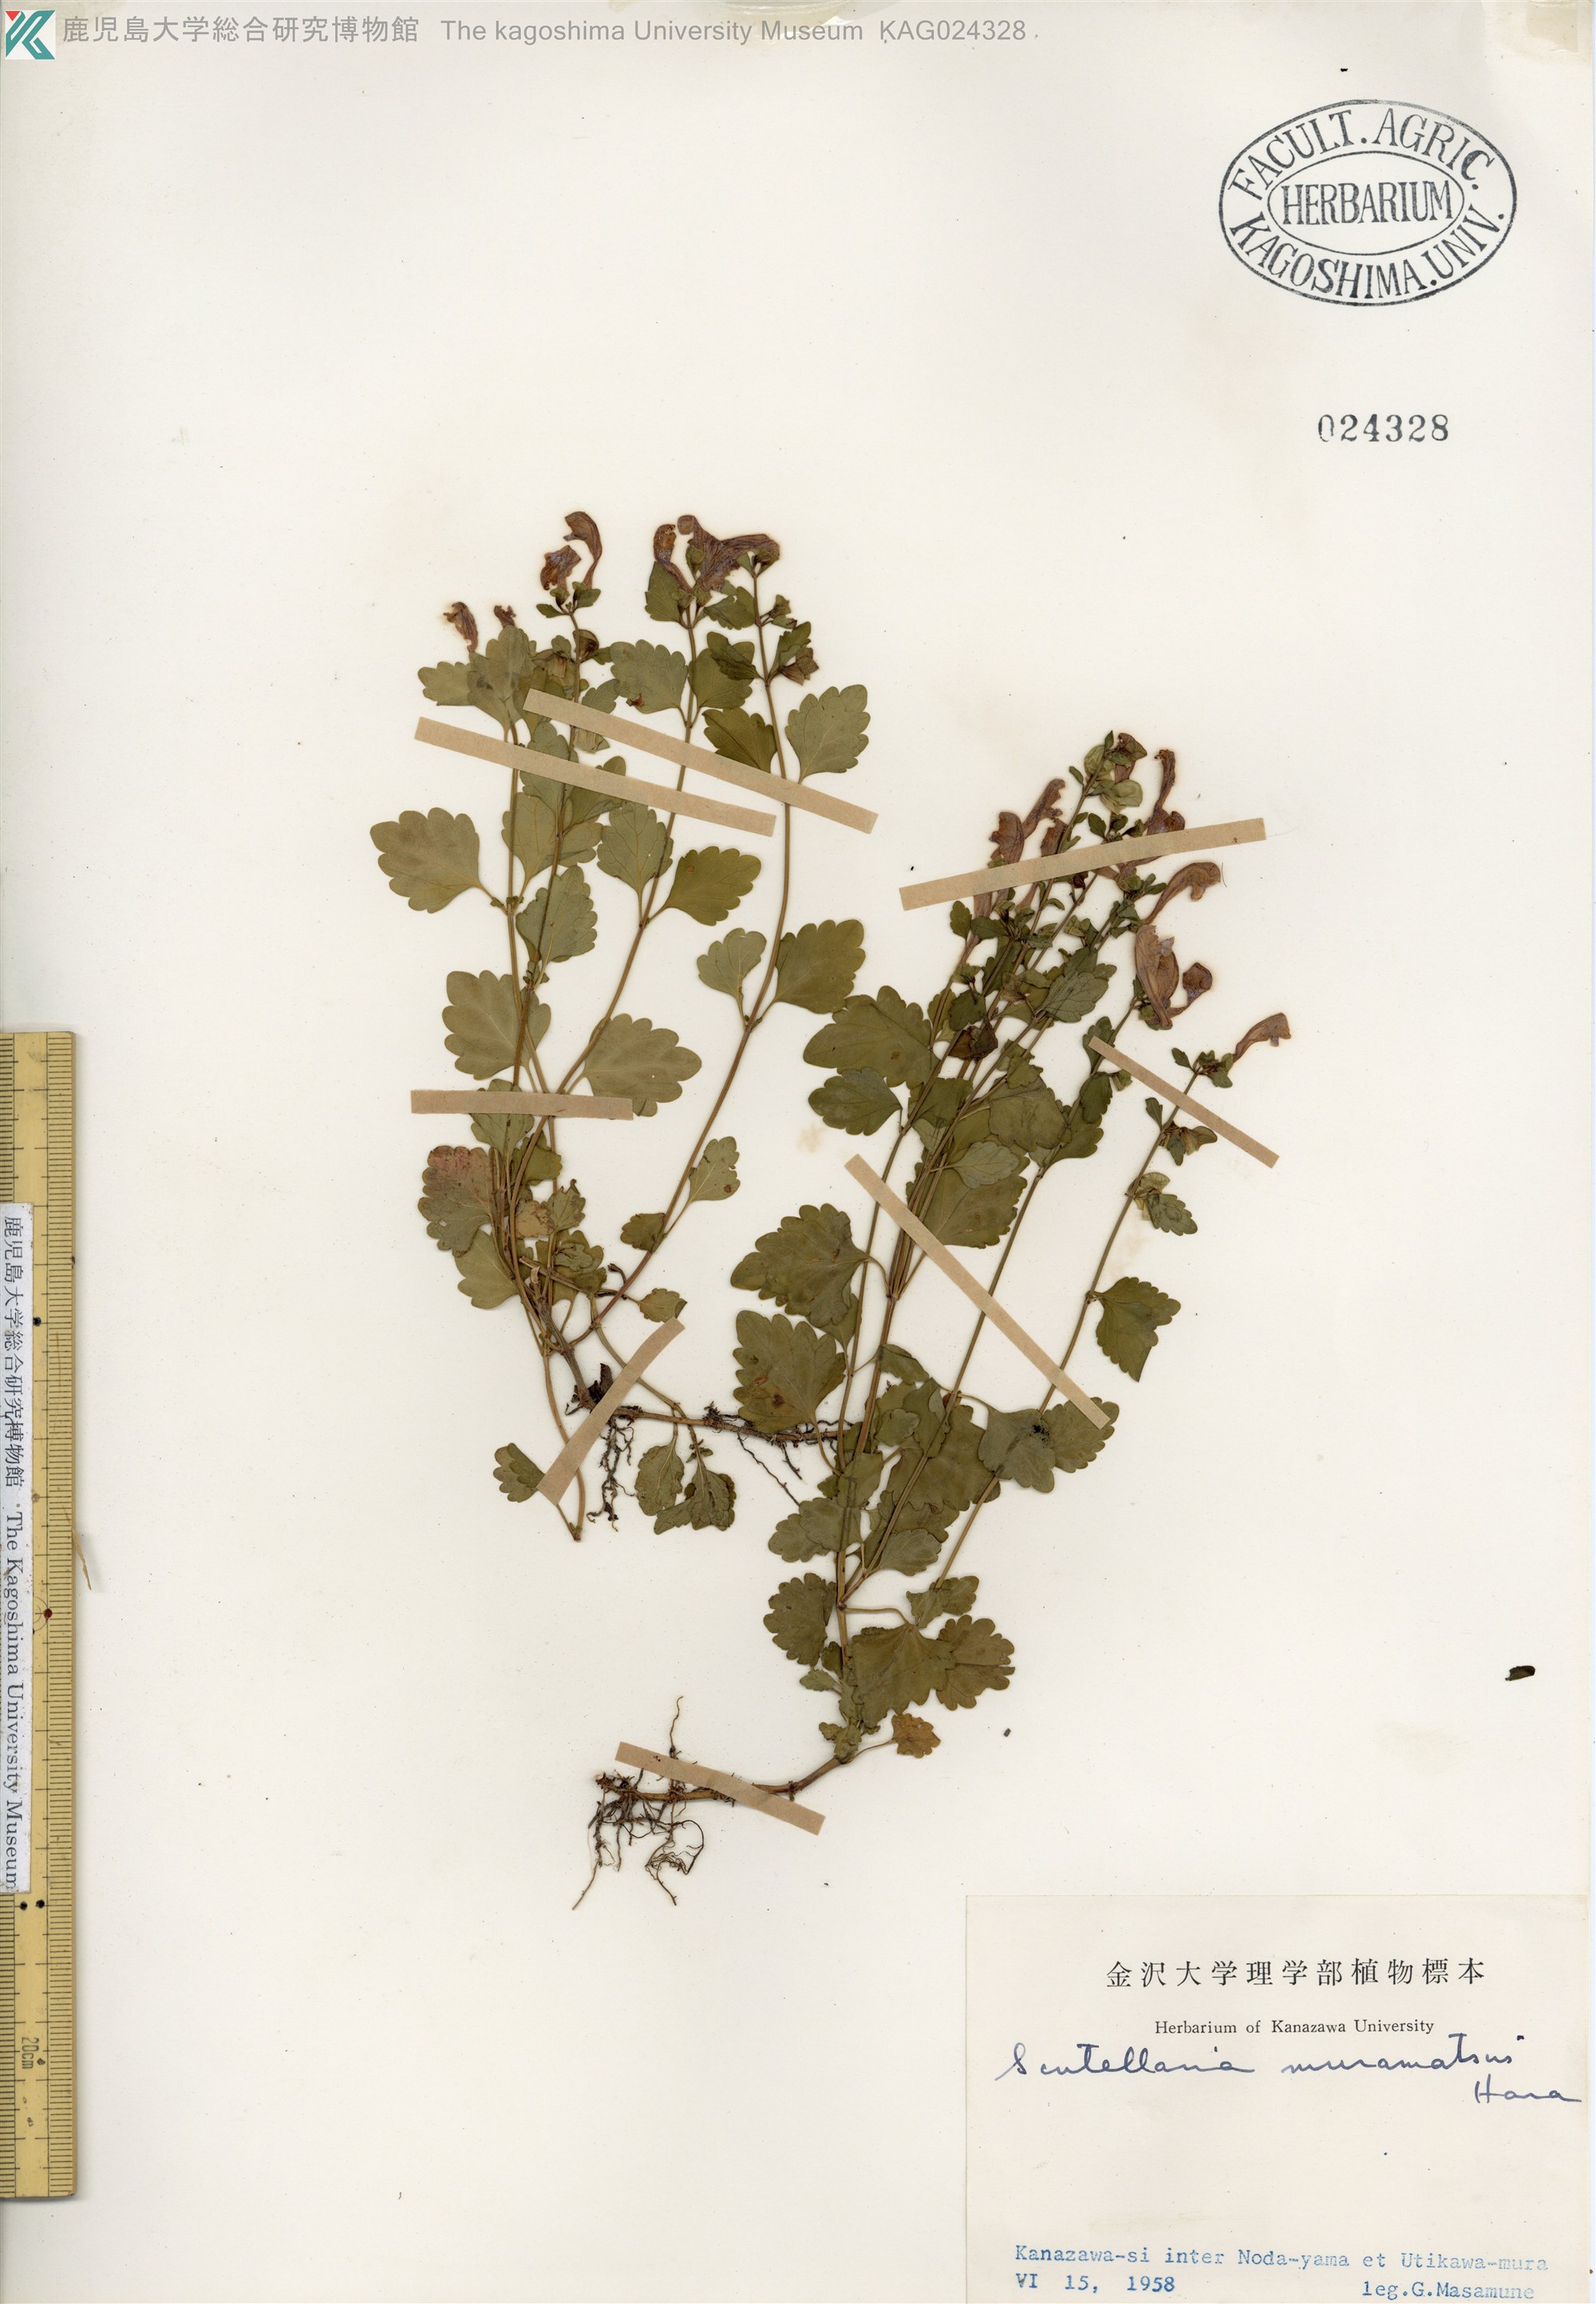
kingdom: Plantae
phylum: Tracheophyta
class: Magnoliopsida
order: Lamiales
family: Lamiaceae
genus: Scutellaria
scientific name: Scutellaria muramatsui
